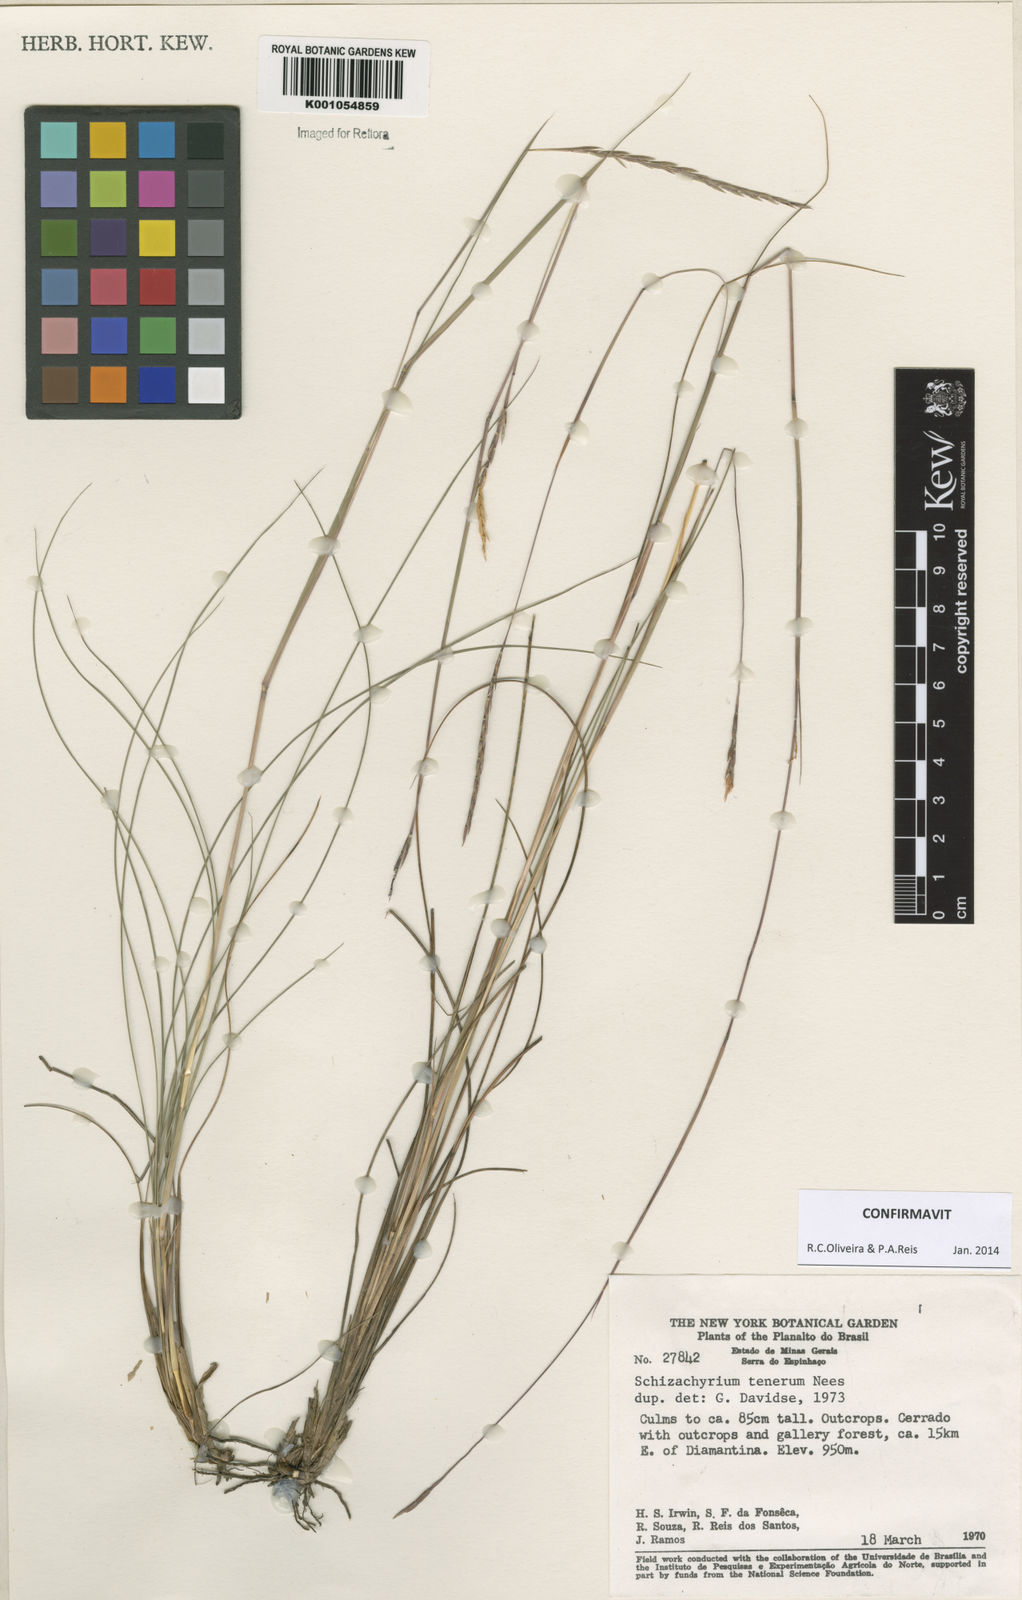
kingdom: Plantae
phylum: Tracheophyta
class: Liliopsida
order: Poales
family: Poaceae
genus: Andropogon
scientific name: Andropogon tener
